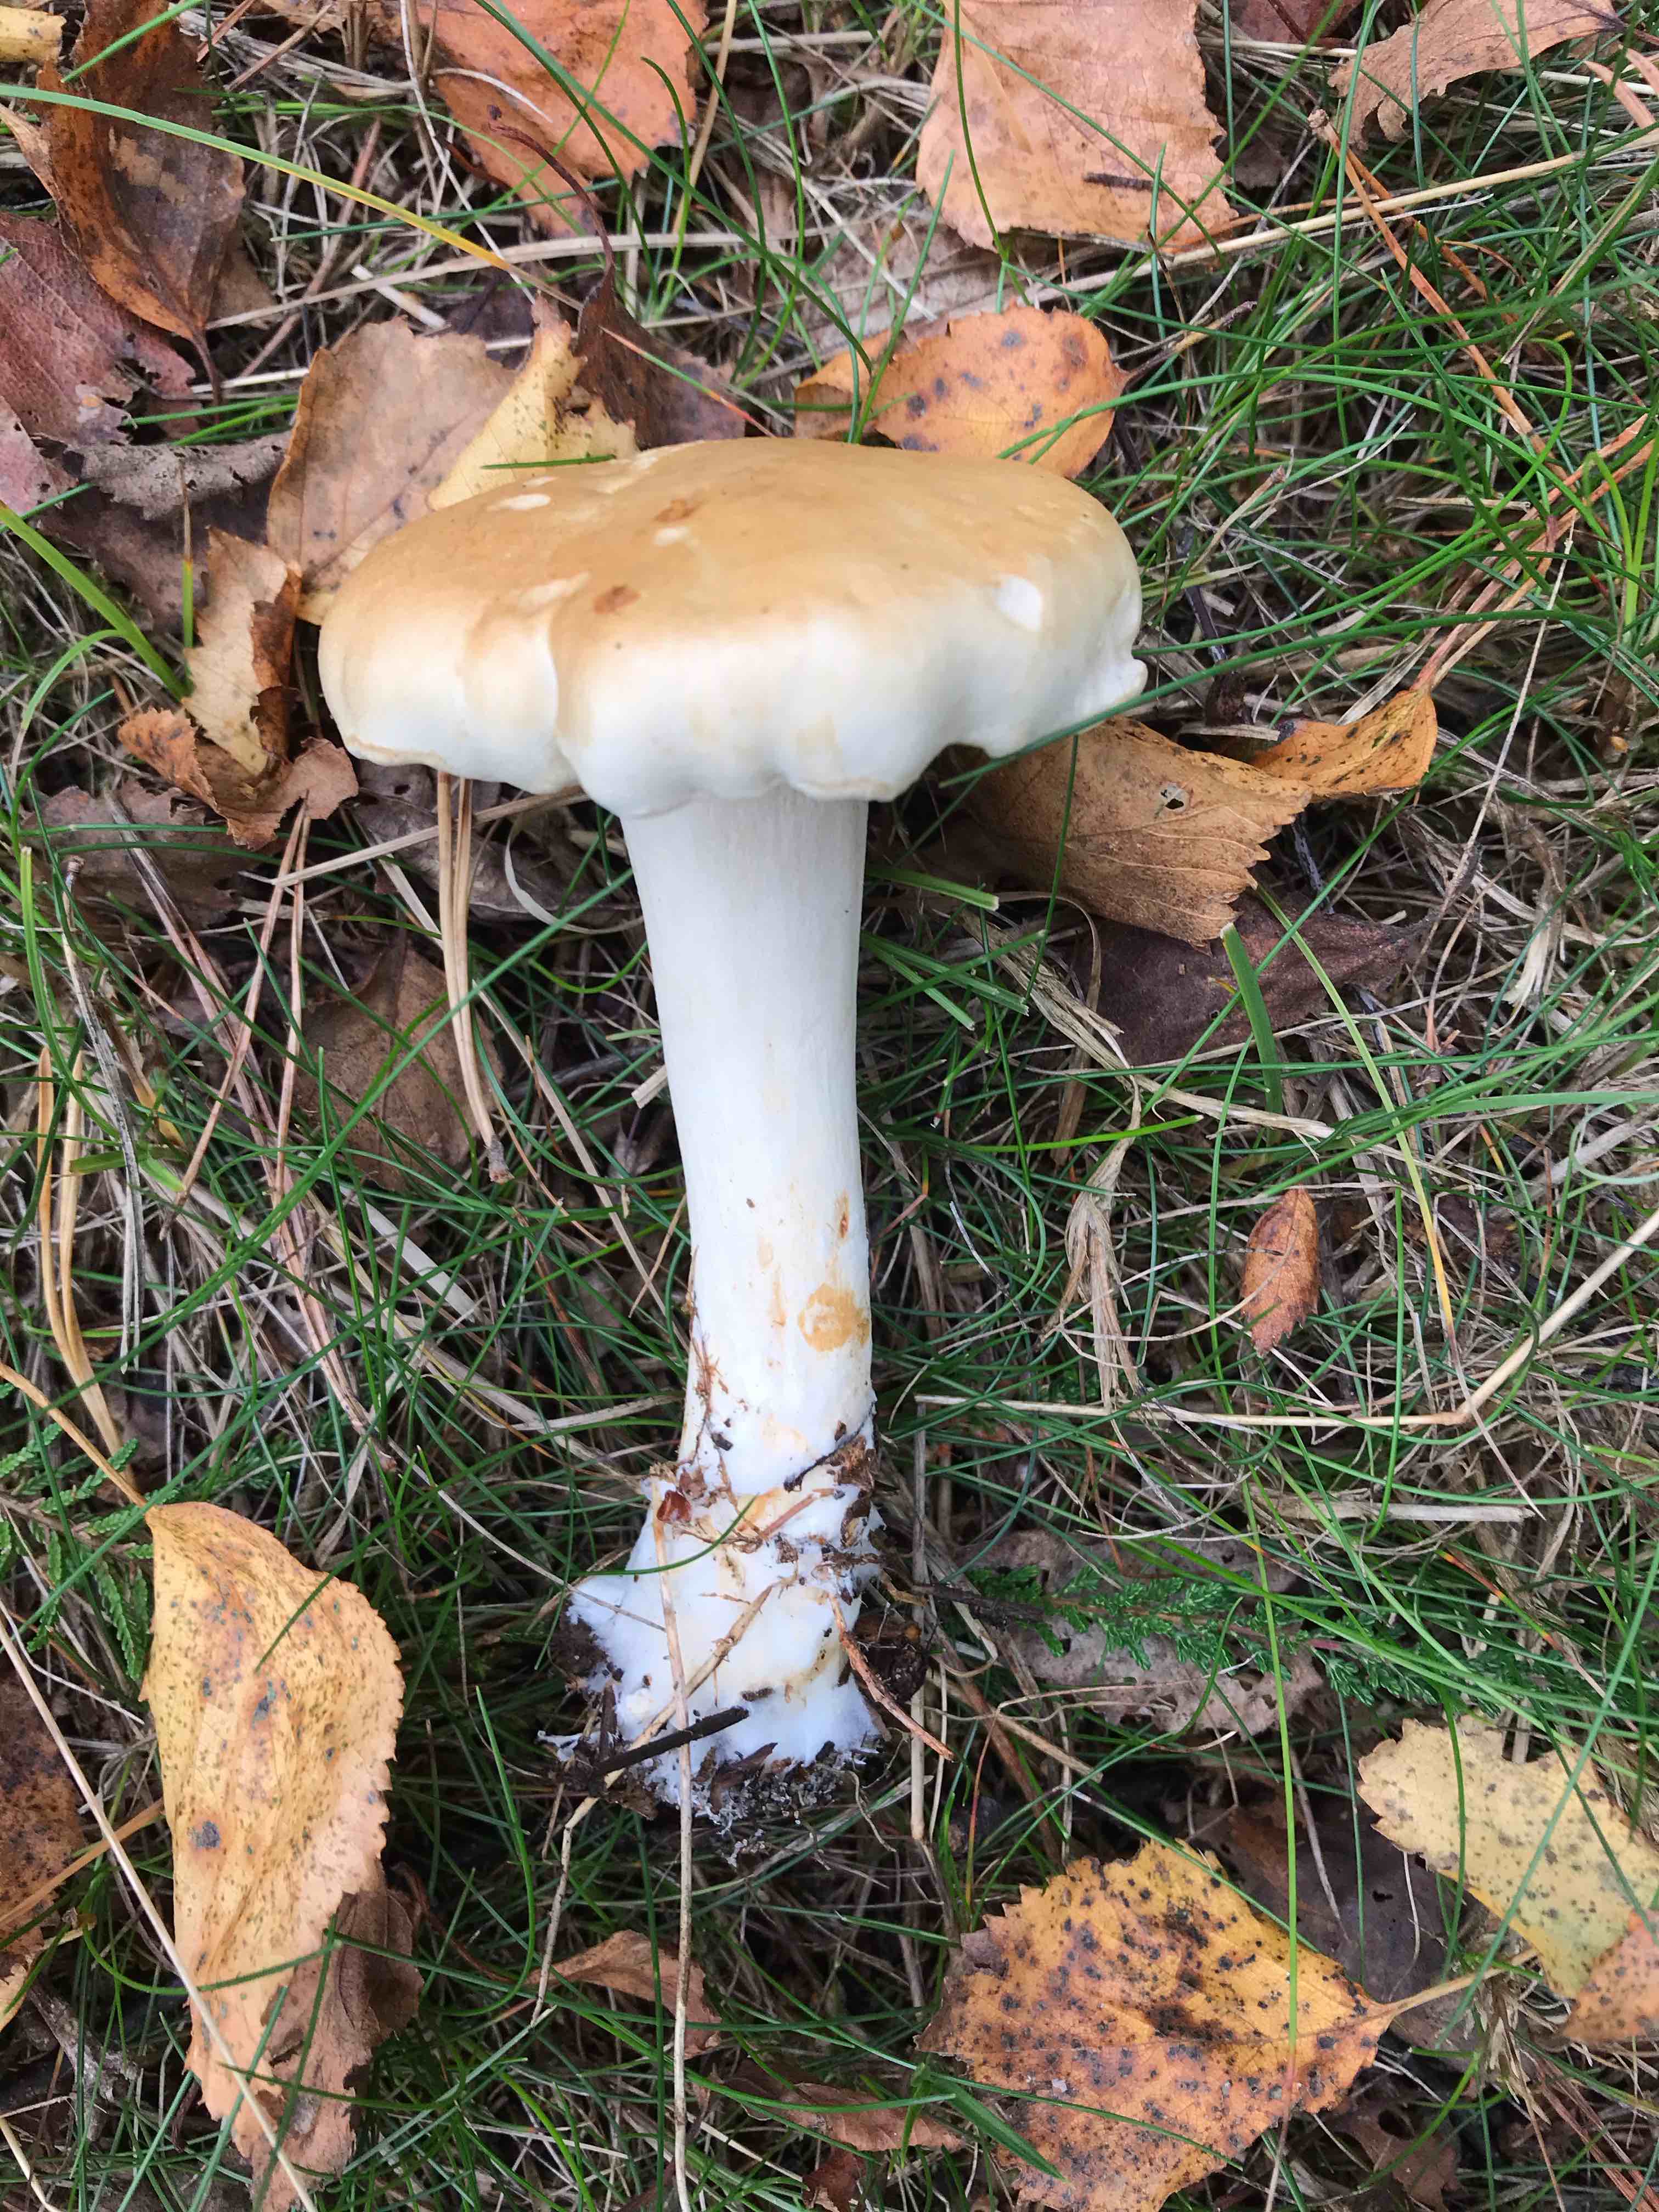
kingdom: Fungi
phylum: Basidiomycota
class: Agaricomycetes
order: Agaricales
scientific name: Agaricales
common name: champignonordenen
